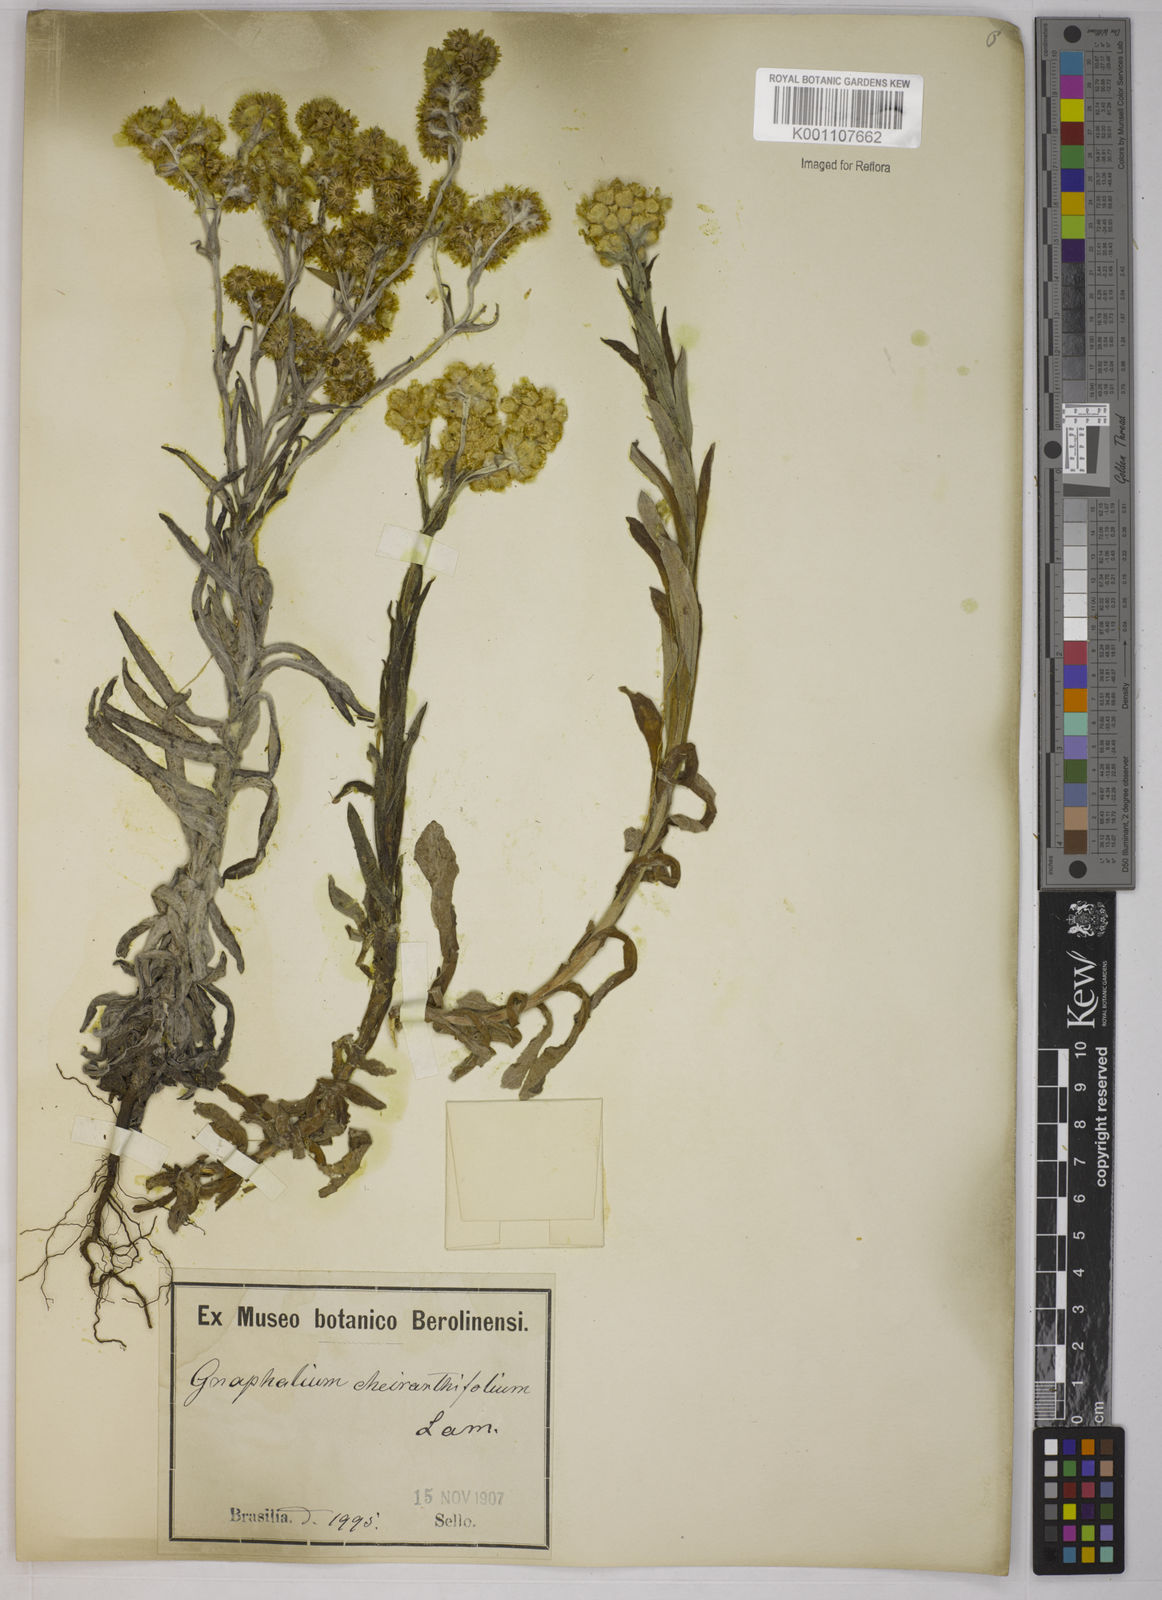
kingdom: Plantae
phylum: Tracheophyta
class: Magnoliopsida
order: Asterales
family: Asteraceae
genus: Pseudognaphalium
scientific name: Pseudognaphalium cheiranthifolium
